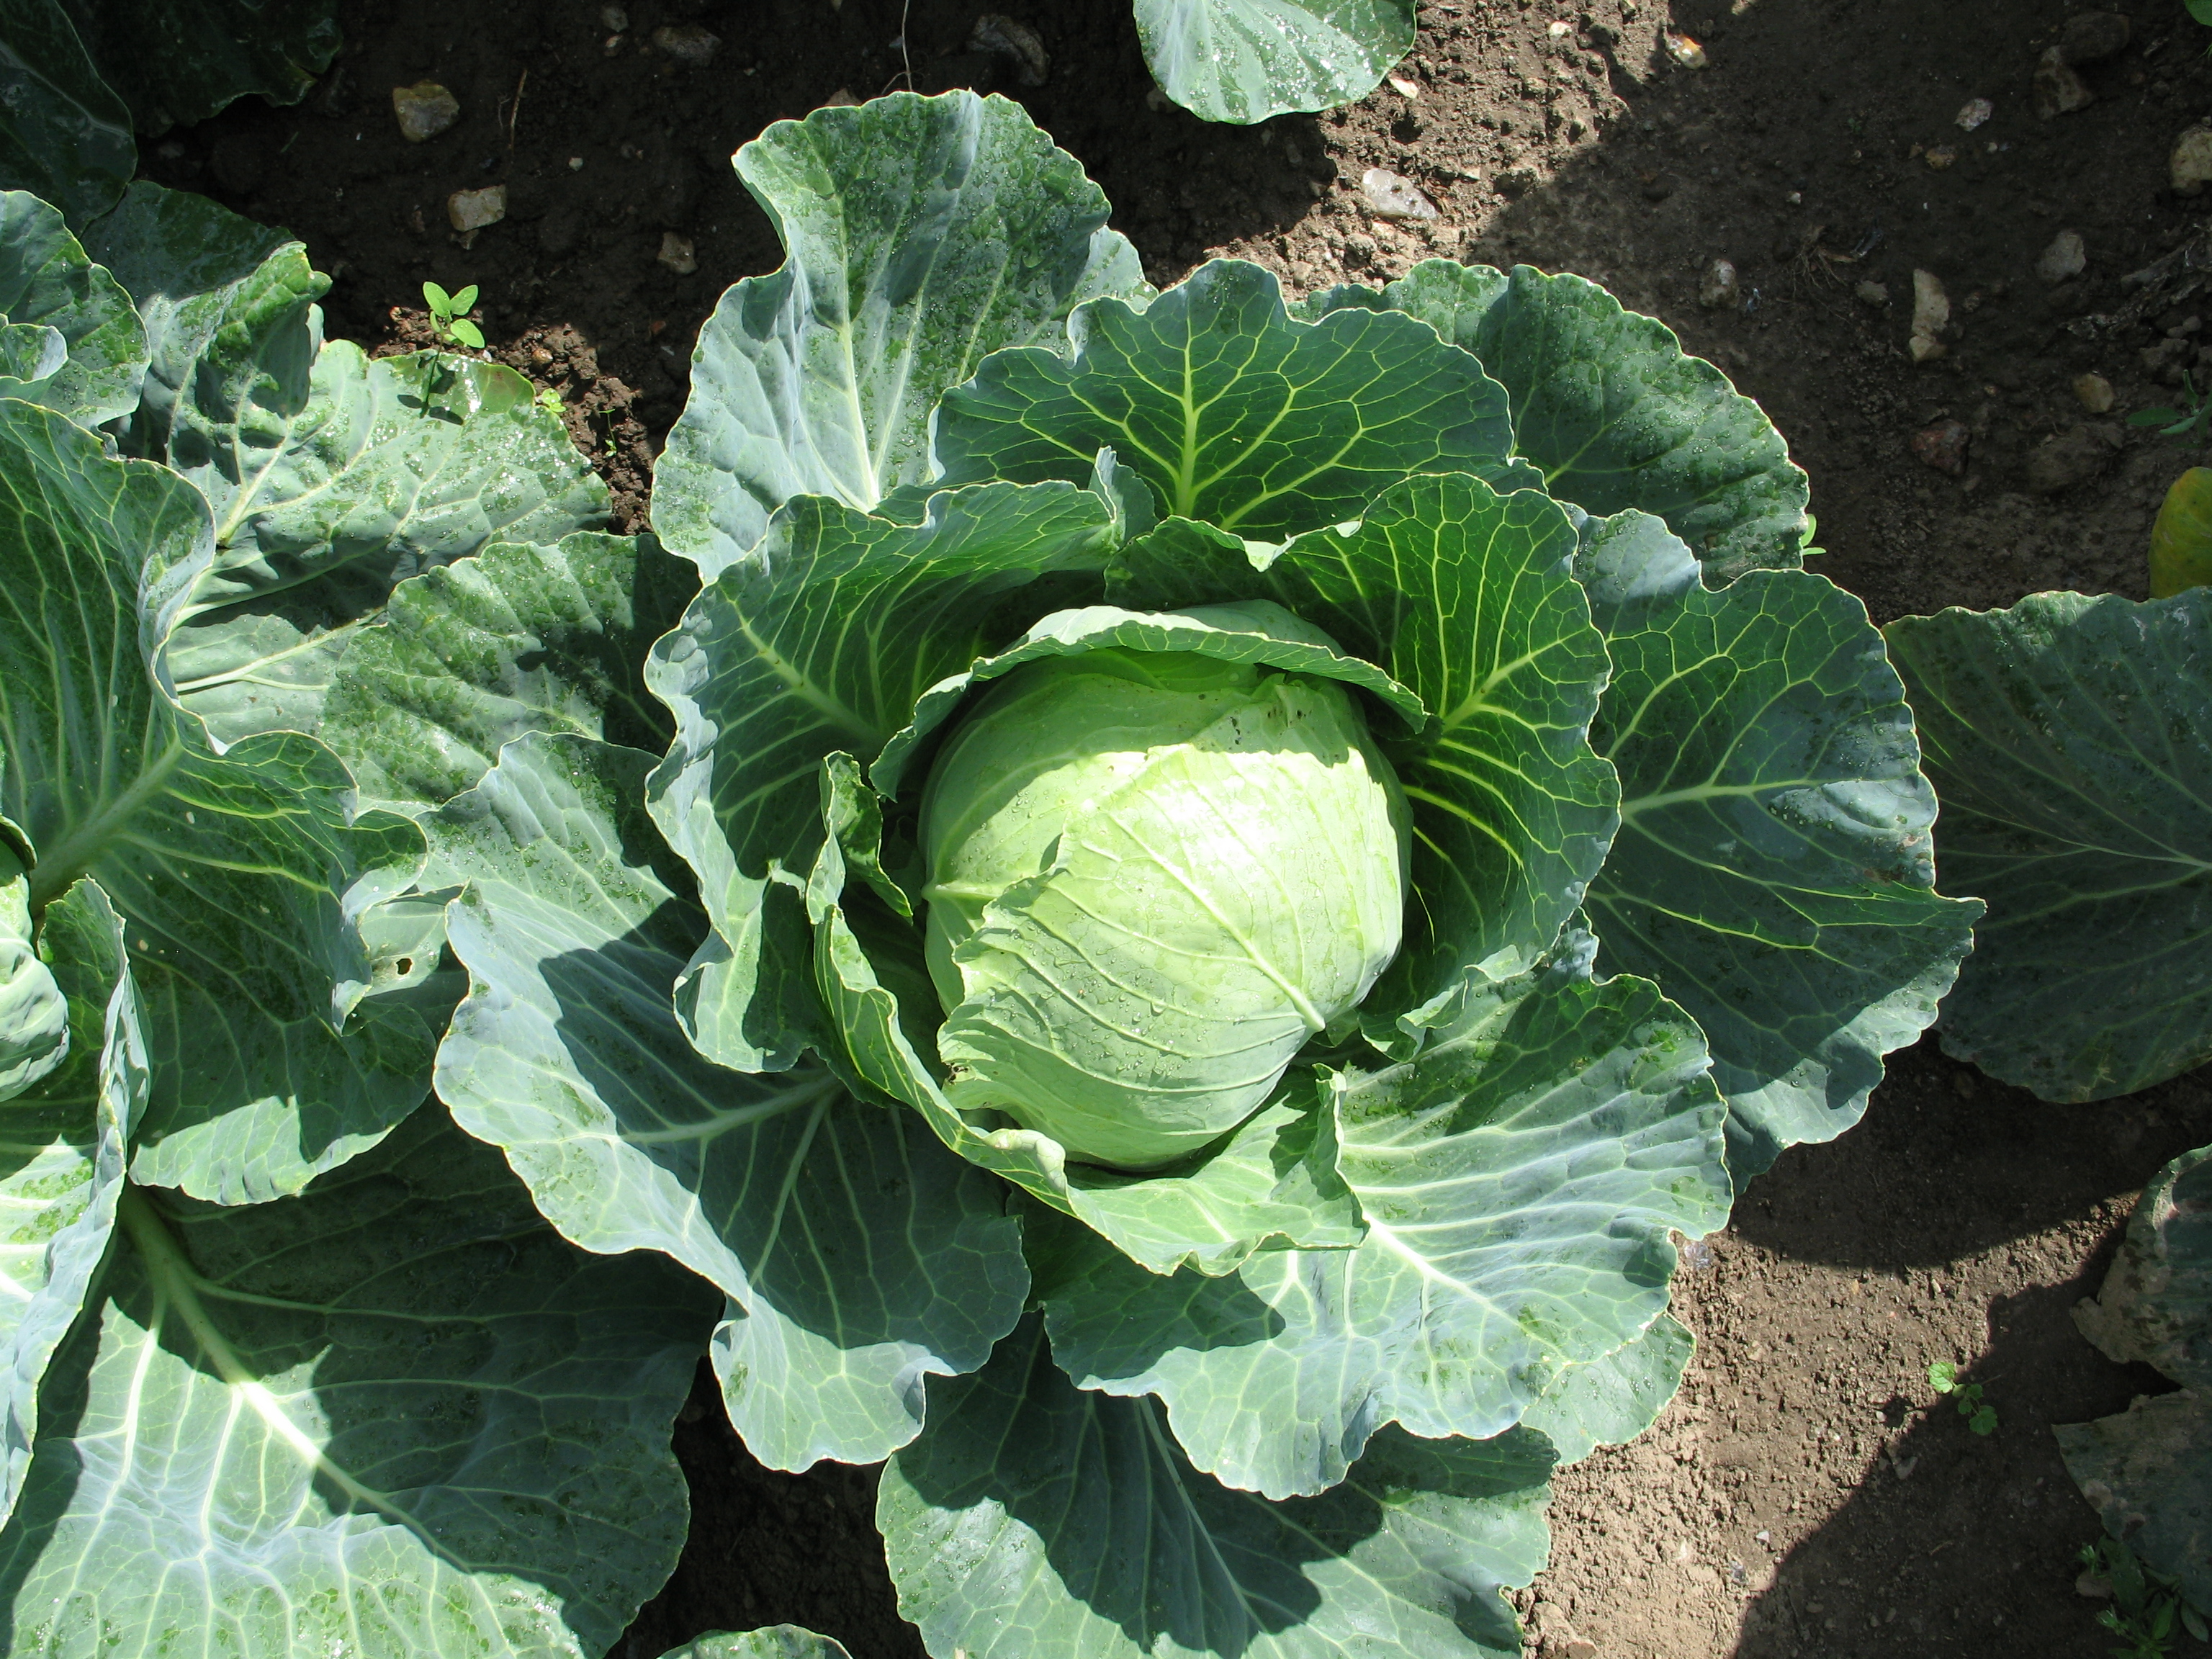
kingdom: Plantae
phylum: Tracheophyta
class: Magnoliopsida
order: Brassicales
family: Brassicaceae
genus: Brassica
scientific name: Brassica oleracea
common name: Cabbage
